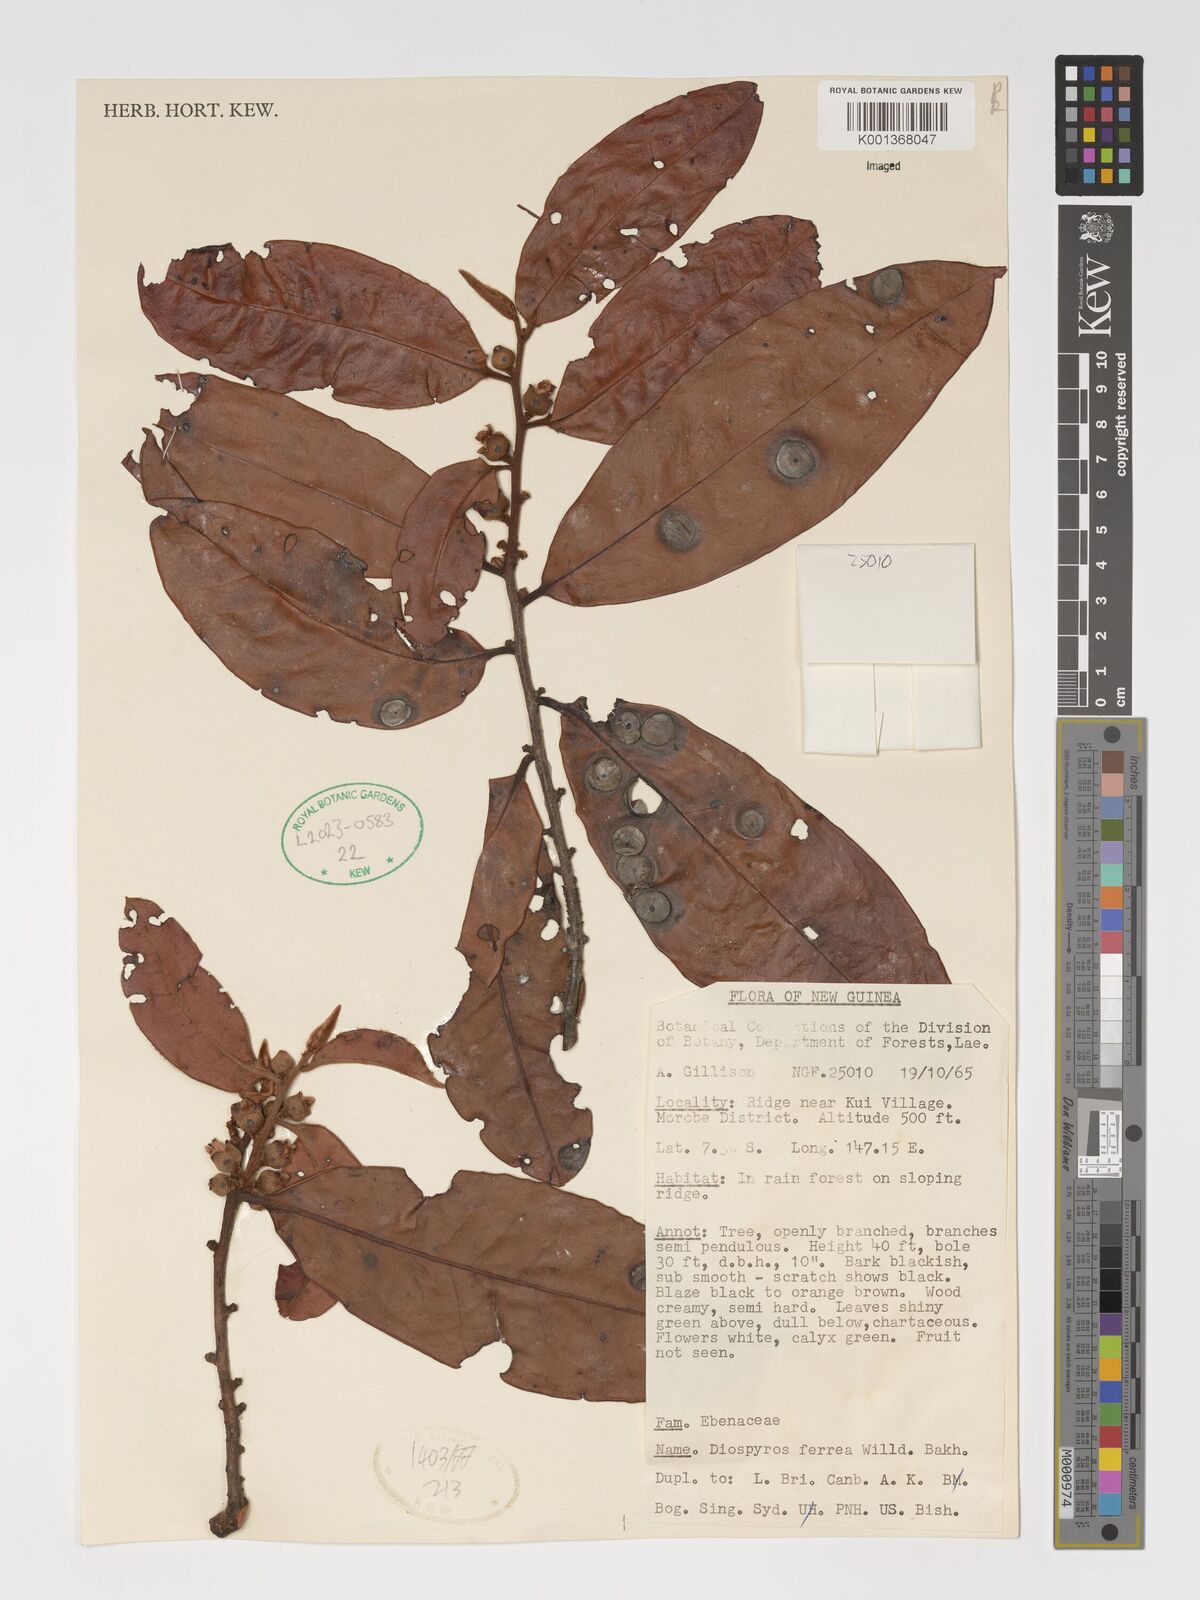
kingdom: Plantae
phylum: Tracheophyta
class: Magnoliopsida
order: Ericales
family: Ebenaceae
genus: Diospyros
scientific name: Diospyros
